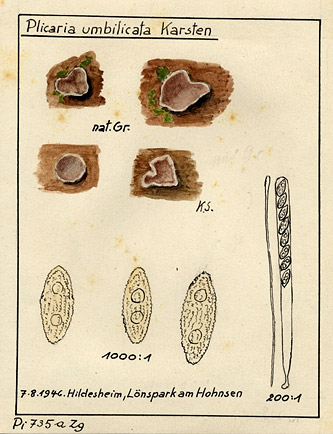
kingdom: Fungi
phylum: Ascomycota
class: Pezizomycetes
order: Pezizales
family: Pyronemataceae
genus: Plicaria
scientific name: Plicaria
